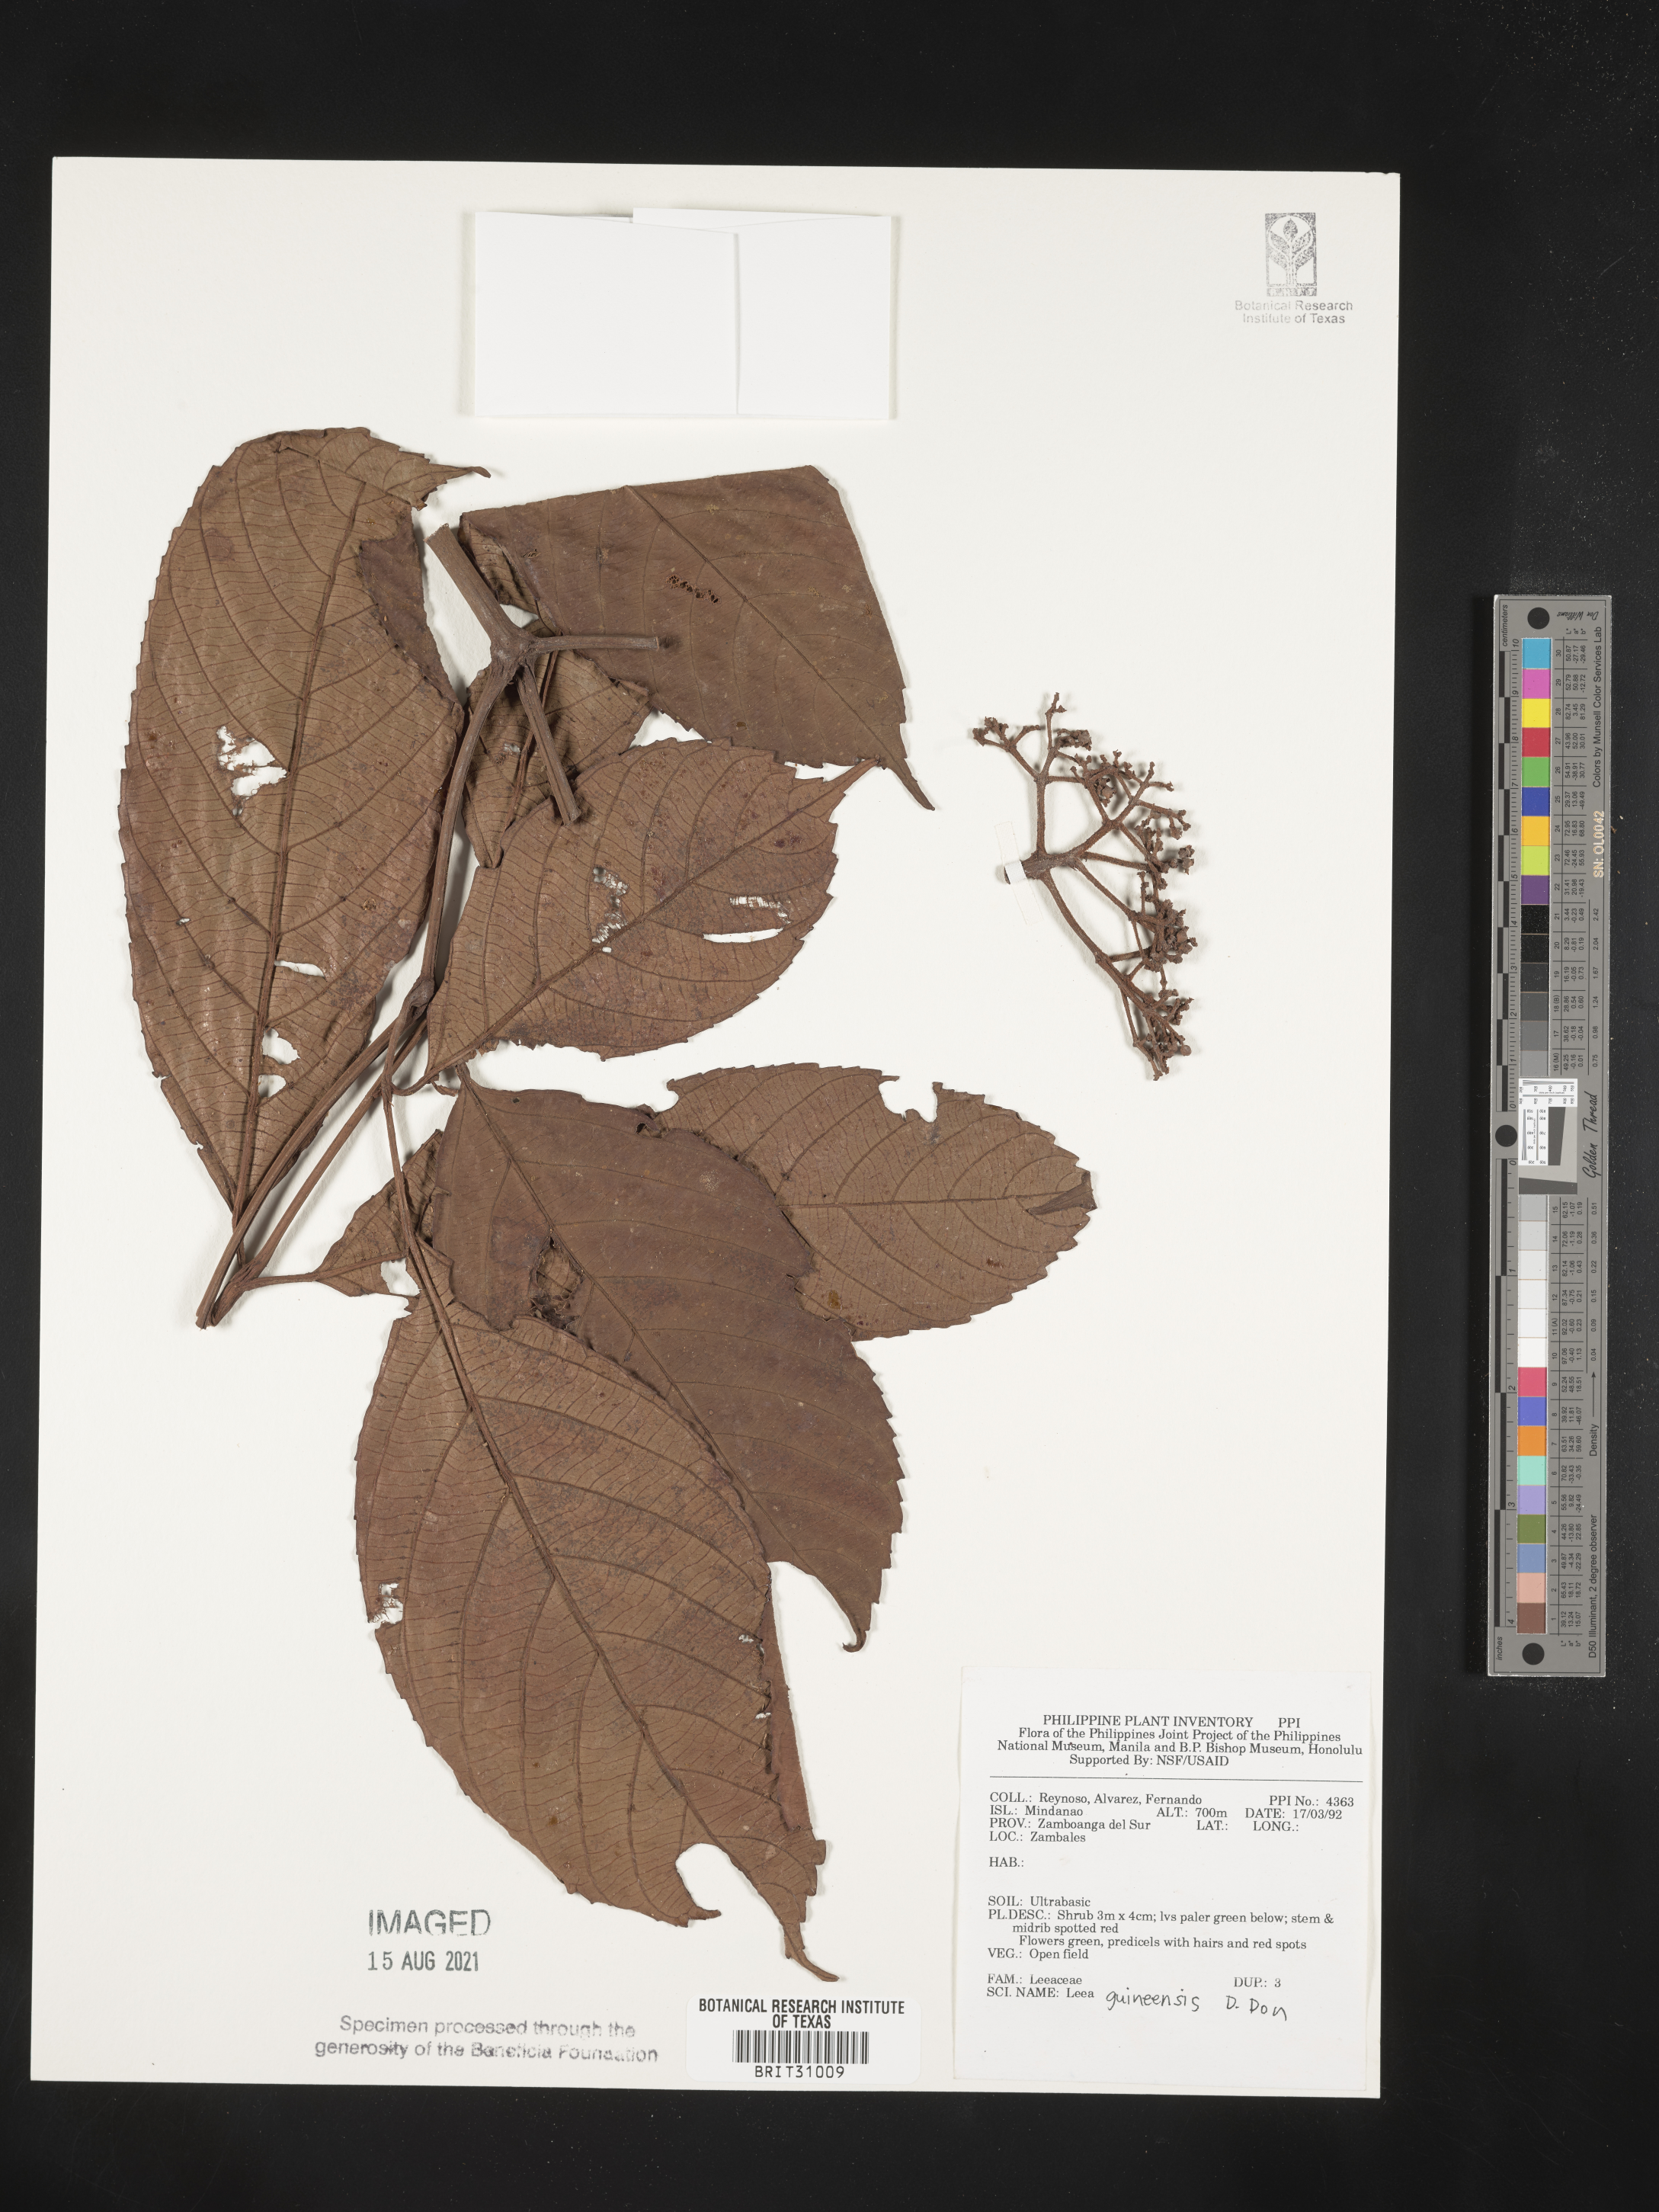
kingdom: Plantae
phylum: Tracheophyta
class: Magnoliopsida
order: Vitales
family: Vitaceae
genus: Leea
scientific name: Leea guineensis
